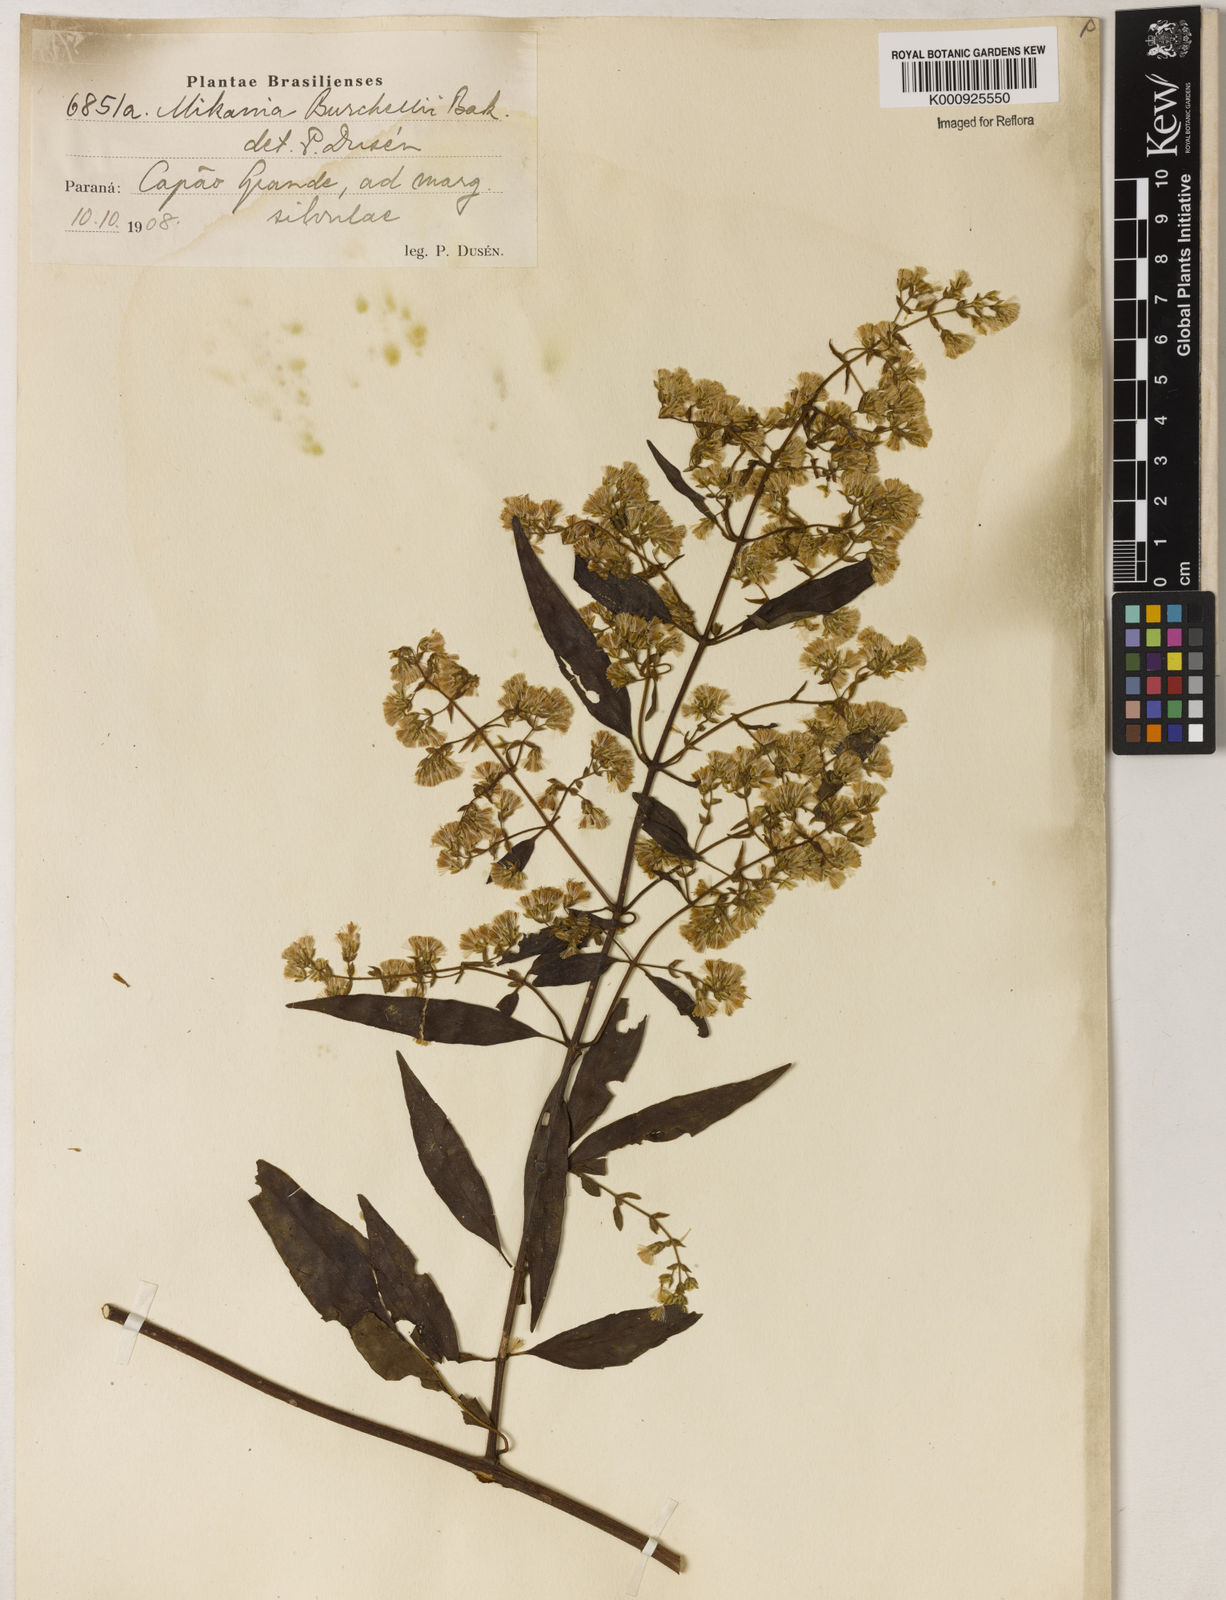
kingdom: Plantae
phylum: Tracheophyta
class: Magnoliopsida
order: Asterales
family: Asteraceae
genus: Mikania
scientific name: Mikania burchellii
